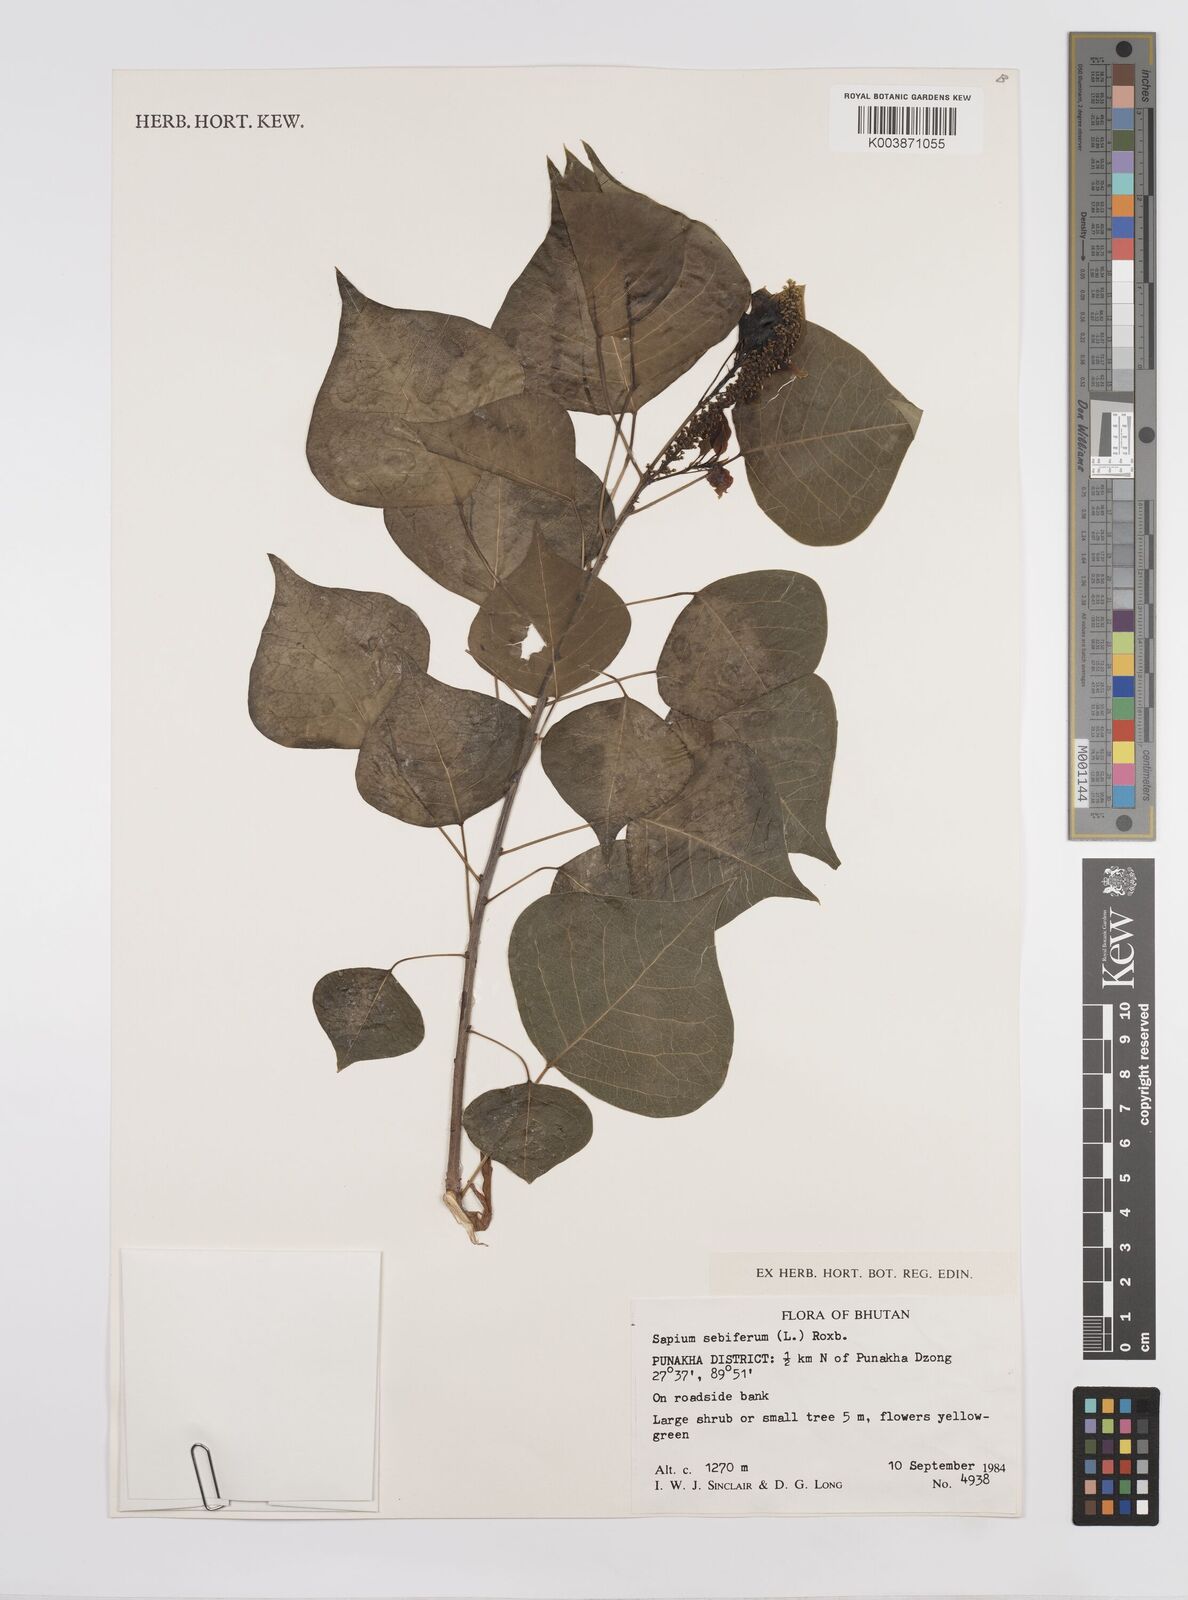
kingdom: Plantae
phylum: Tracheophyta
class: Magnoliopsida
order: Malpighiales
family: Euphorbiaceae
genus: Triadica
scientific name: Triadica sebifera
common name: Chinese tallow
